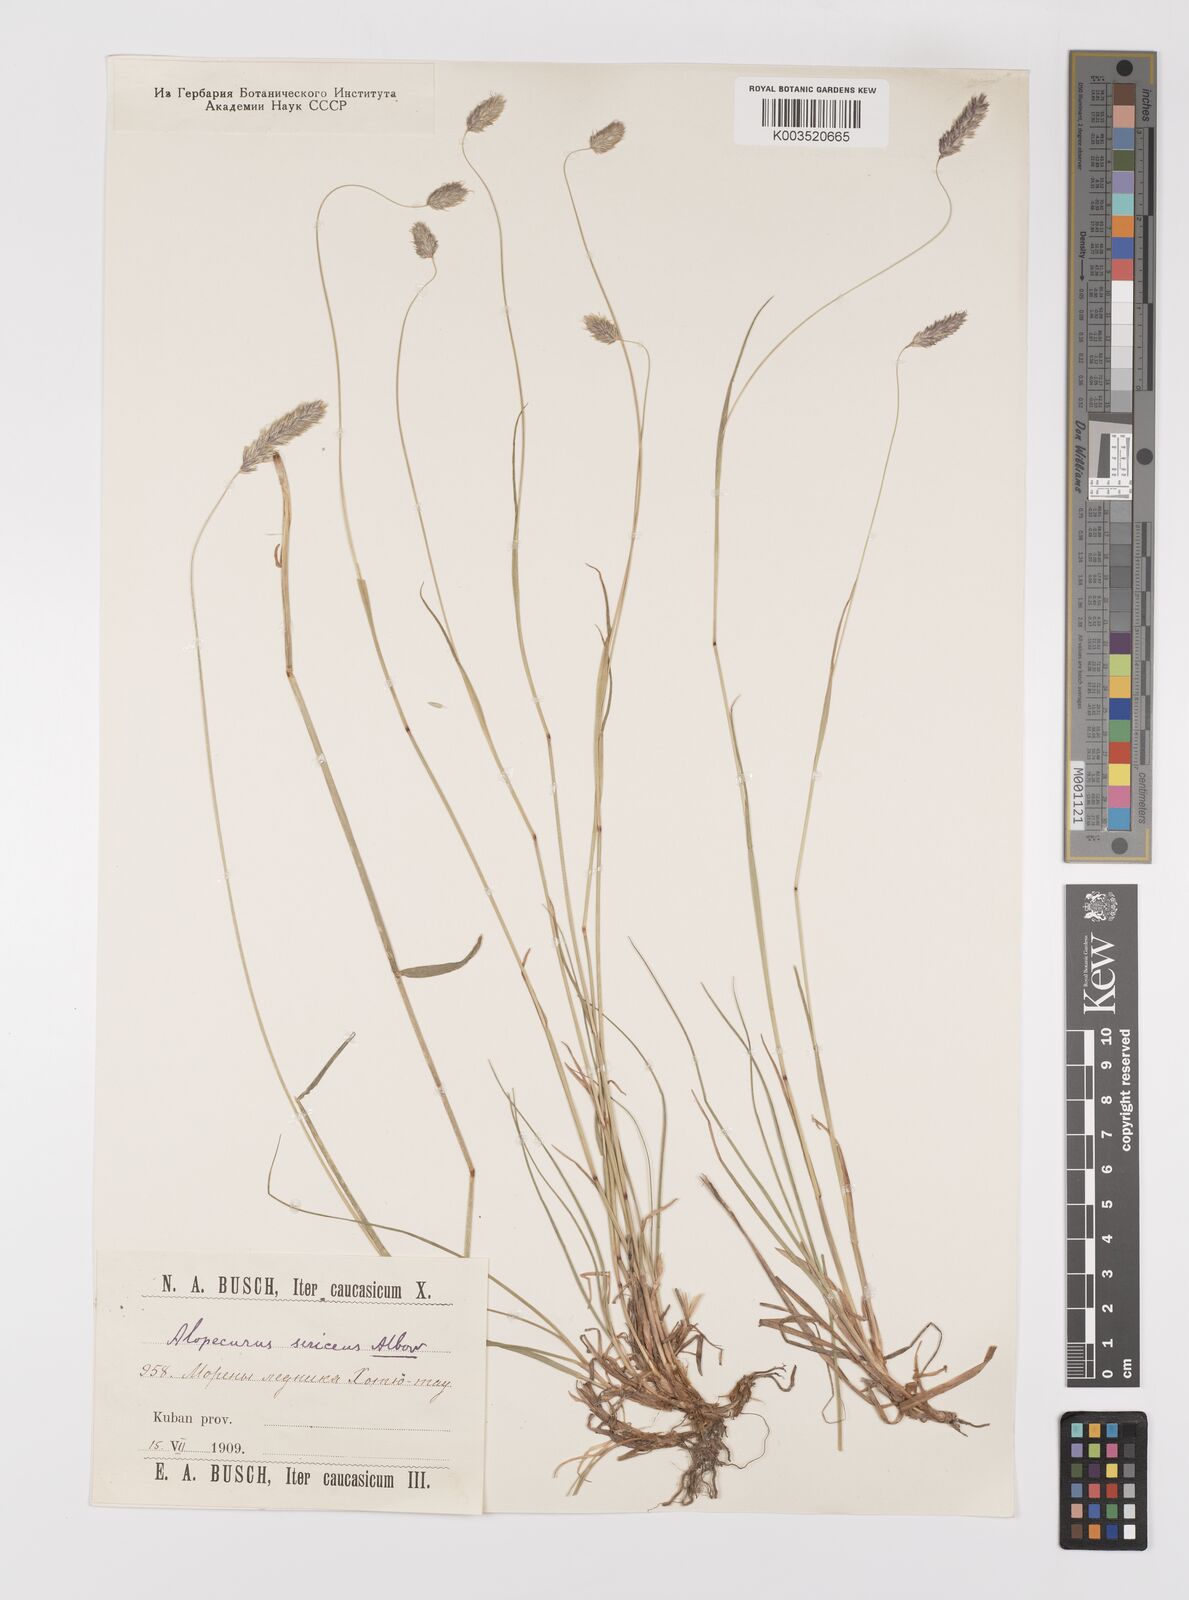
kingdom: Plantae
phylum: Tracheophyta
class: Liliopsida
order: Poales
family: Poaceae
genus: Alopecurus
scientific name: Alopecurus ponticus
